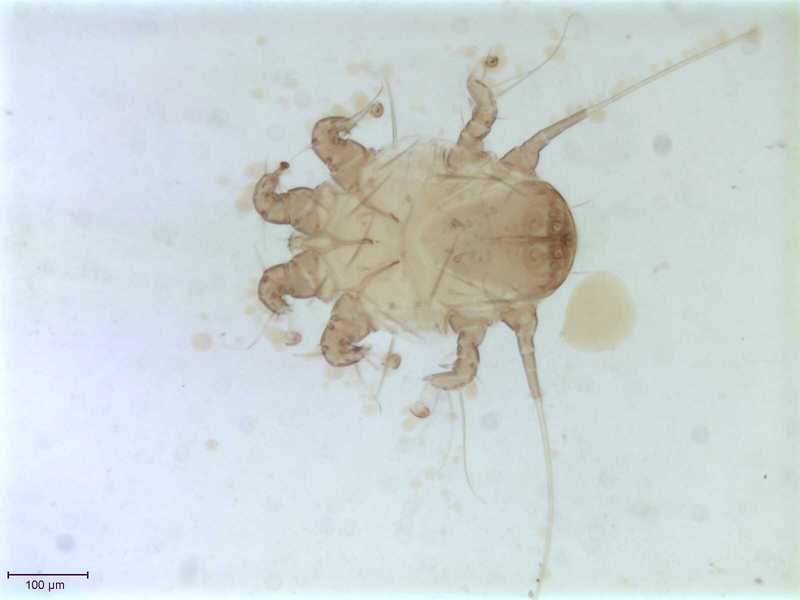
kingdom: Animalia
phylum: Arthropoda
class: Arachnida
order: Sarcoptiformes
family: Chaetodactylidae
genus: Sennertia
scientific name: Sennertia argentina
